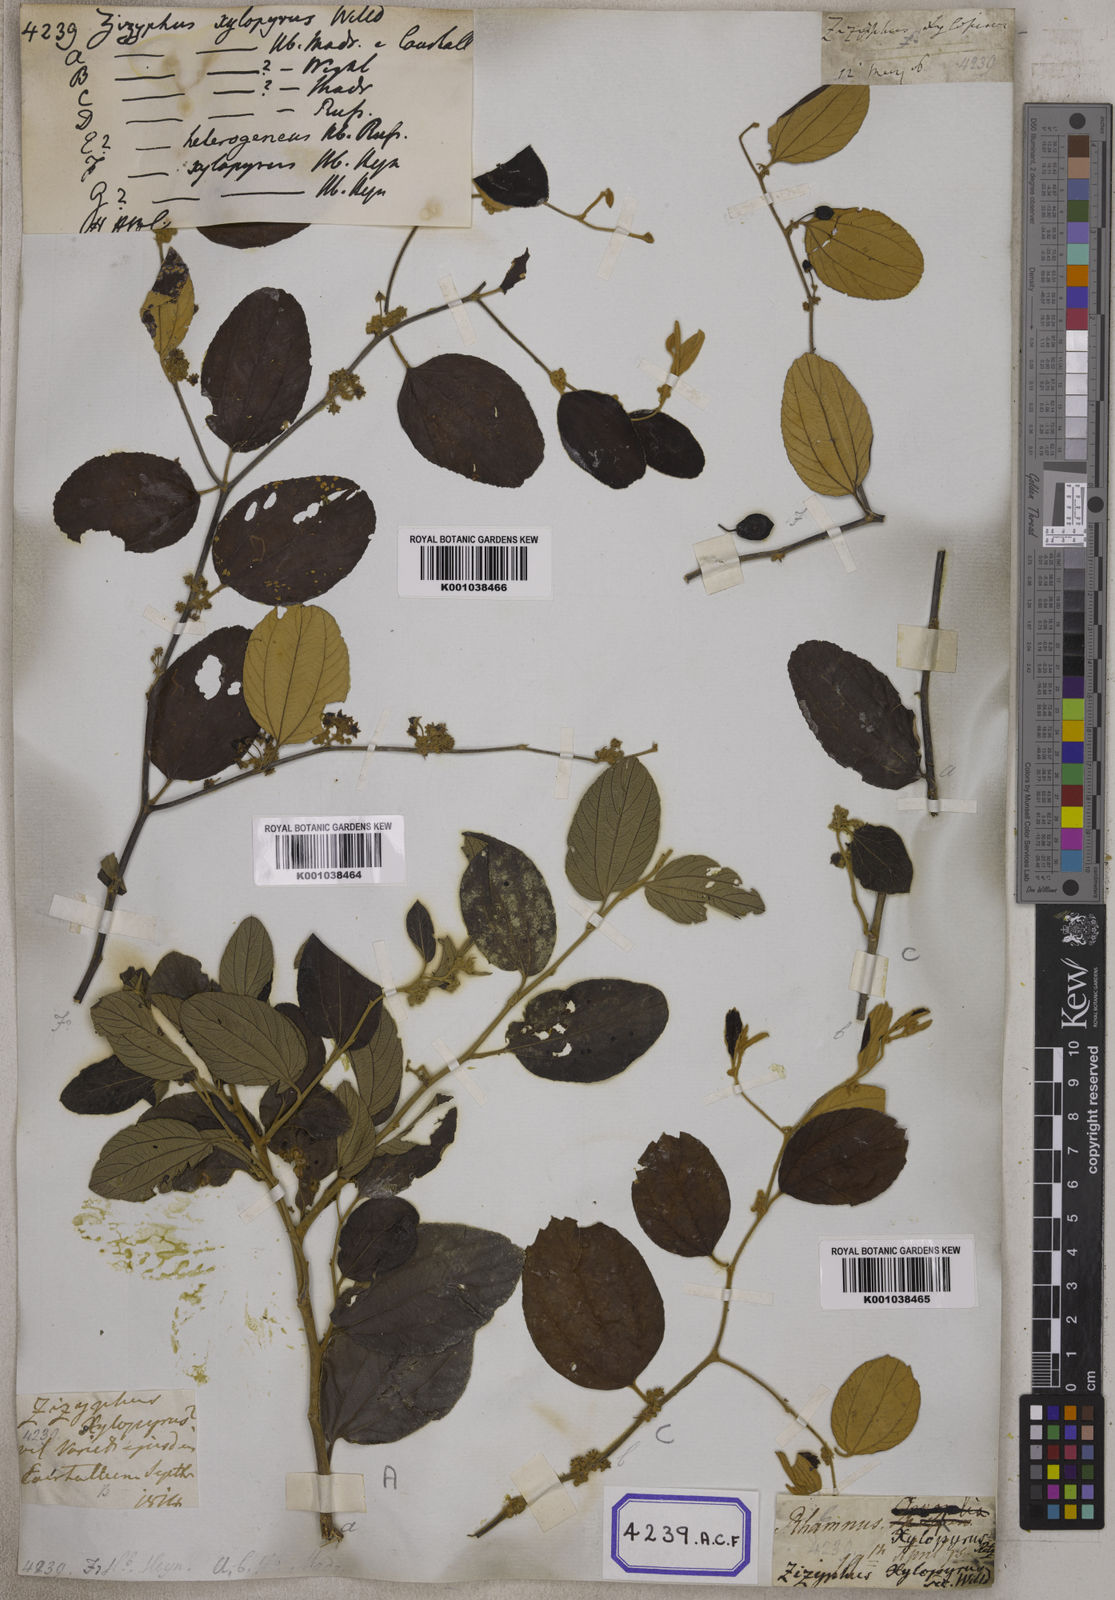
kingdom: Plantae
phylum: Tracheophyta
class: Magnoliopsida
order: Rosales
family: Rhamnaceae
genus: Ziziphus
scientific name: Ziziphus xylopyrus
